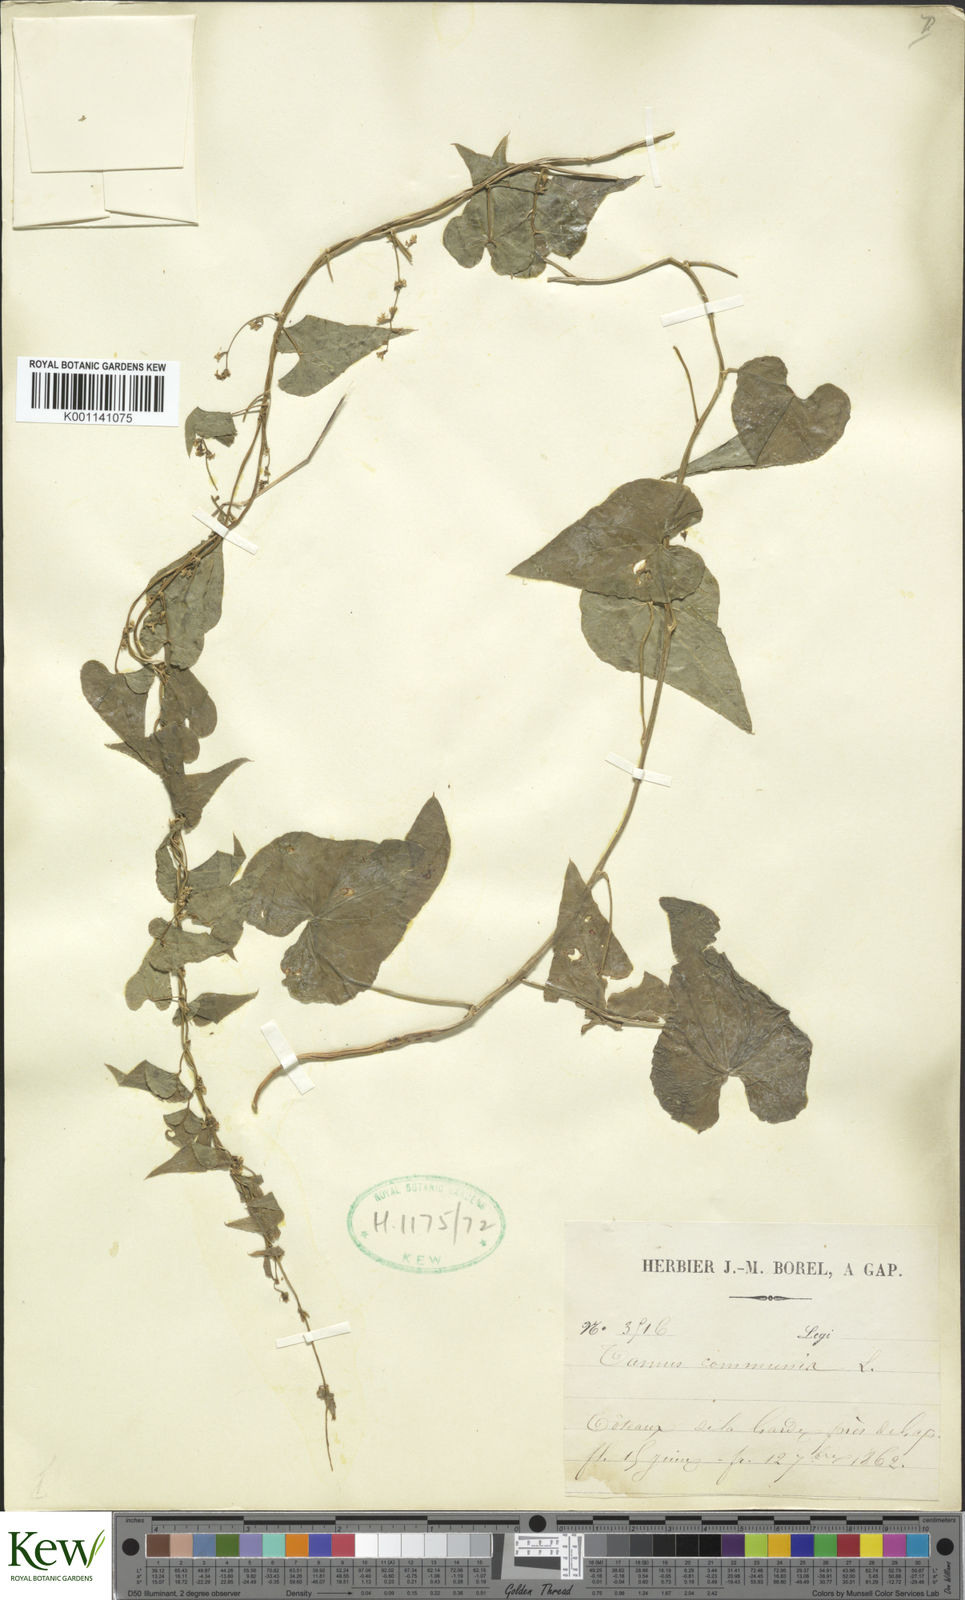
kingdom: Plantae
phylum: Tracheophyta
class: Liliopsida
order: Dioscoreales
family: Dioscoreaceae
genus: Dioscorea
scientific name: Dioscorea communis
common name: Black-bindweed
